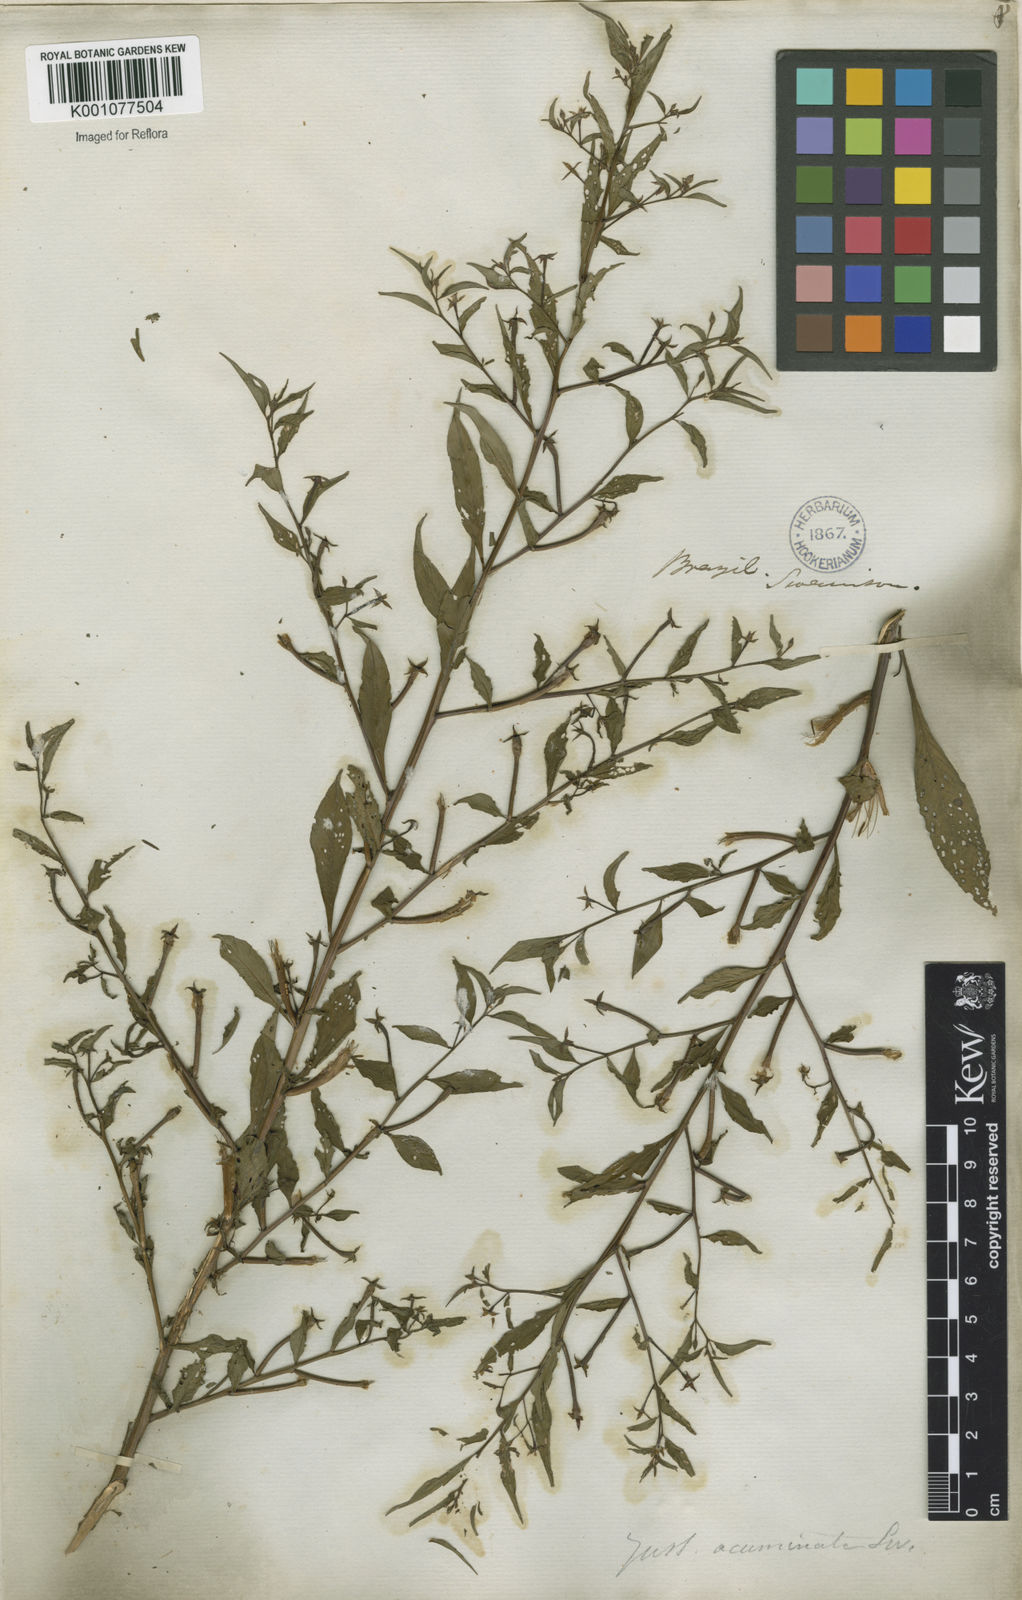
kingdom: Plantae
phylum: Tracheophyta
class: Magnoliopsida
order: Myrtales
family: Onagraceae
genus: Ludwigia
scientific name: Ludwigia hyssopifolia
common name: Linear leaf water primrose
